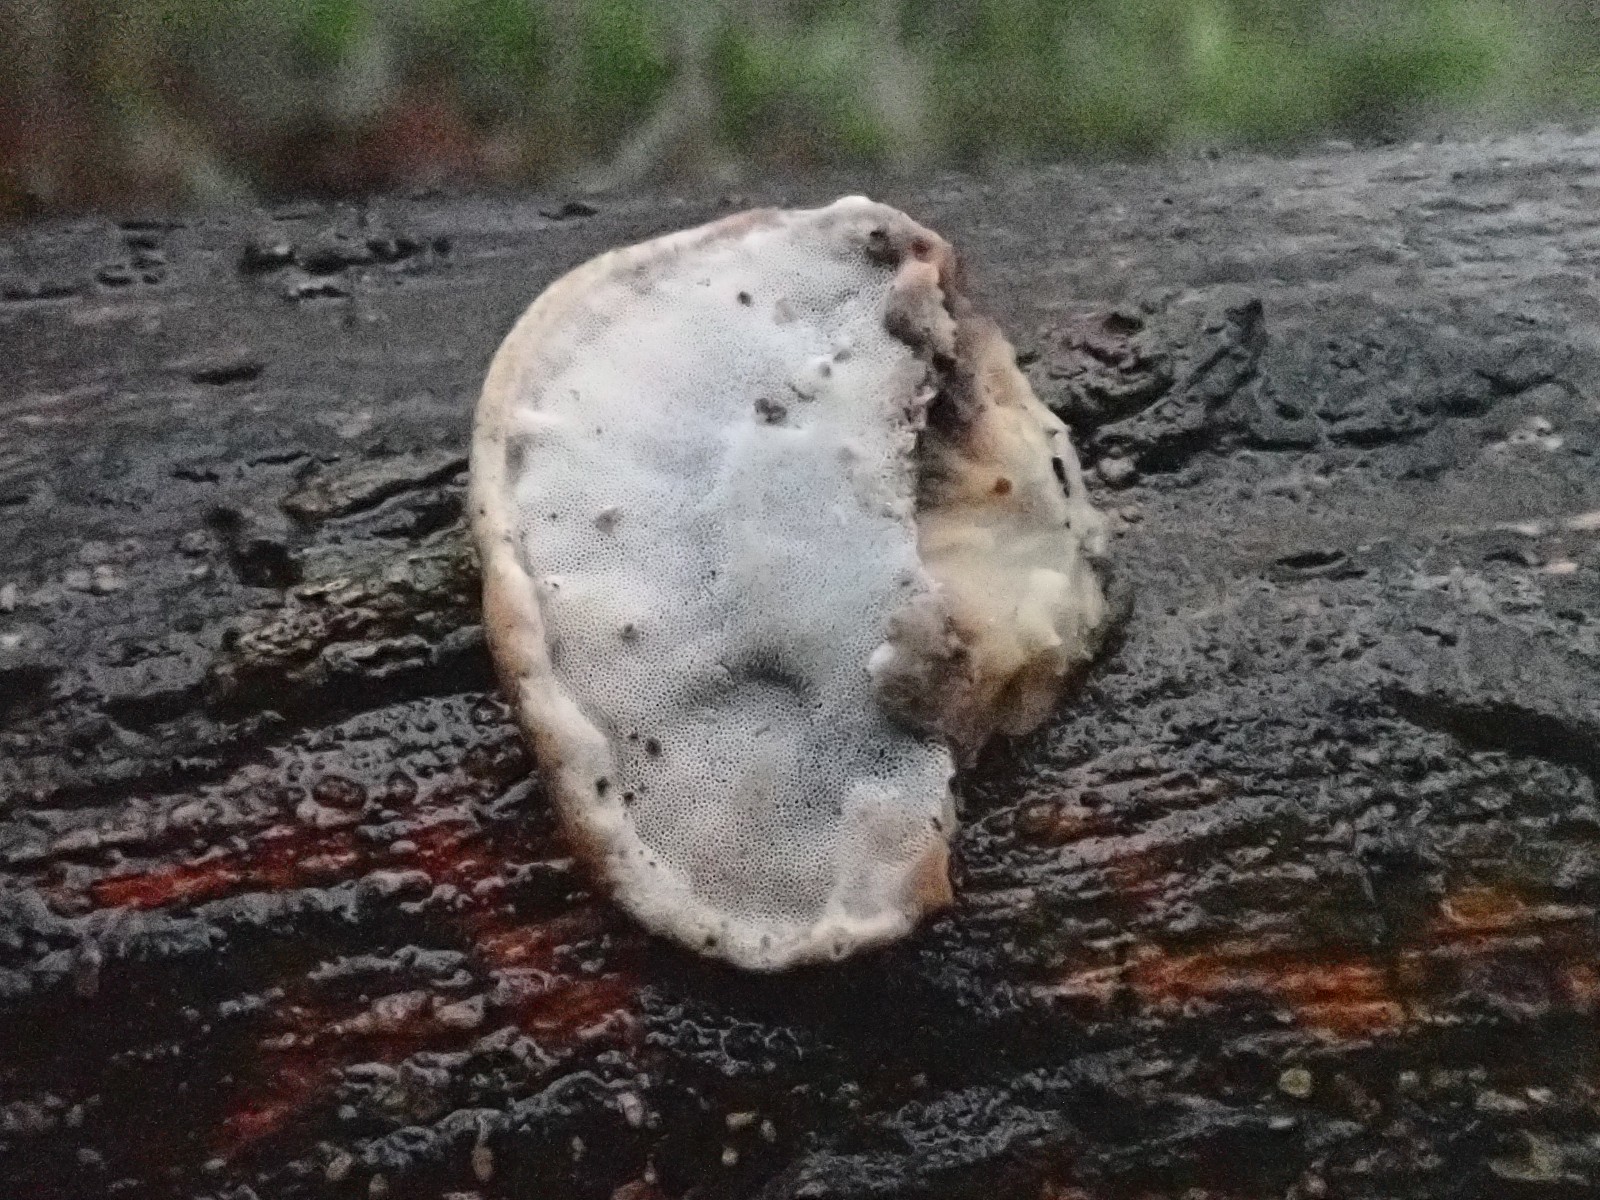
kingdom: Fungi
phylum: Basidiomycota
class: Agaricomycetes
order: Polyporales
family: Incrustoporiaceae
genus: Skeletocutis
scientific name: Skeletocutis nemoralis
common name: stor krystalporesvamp
